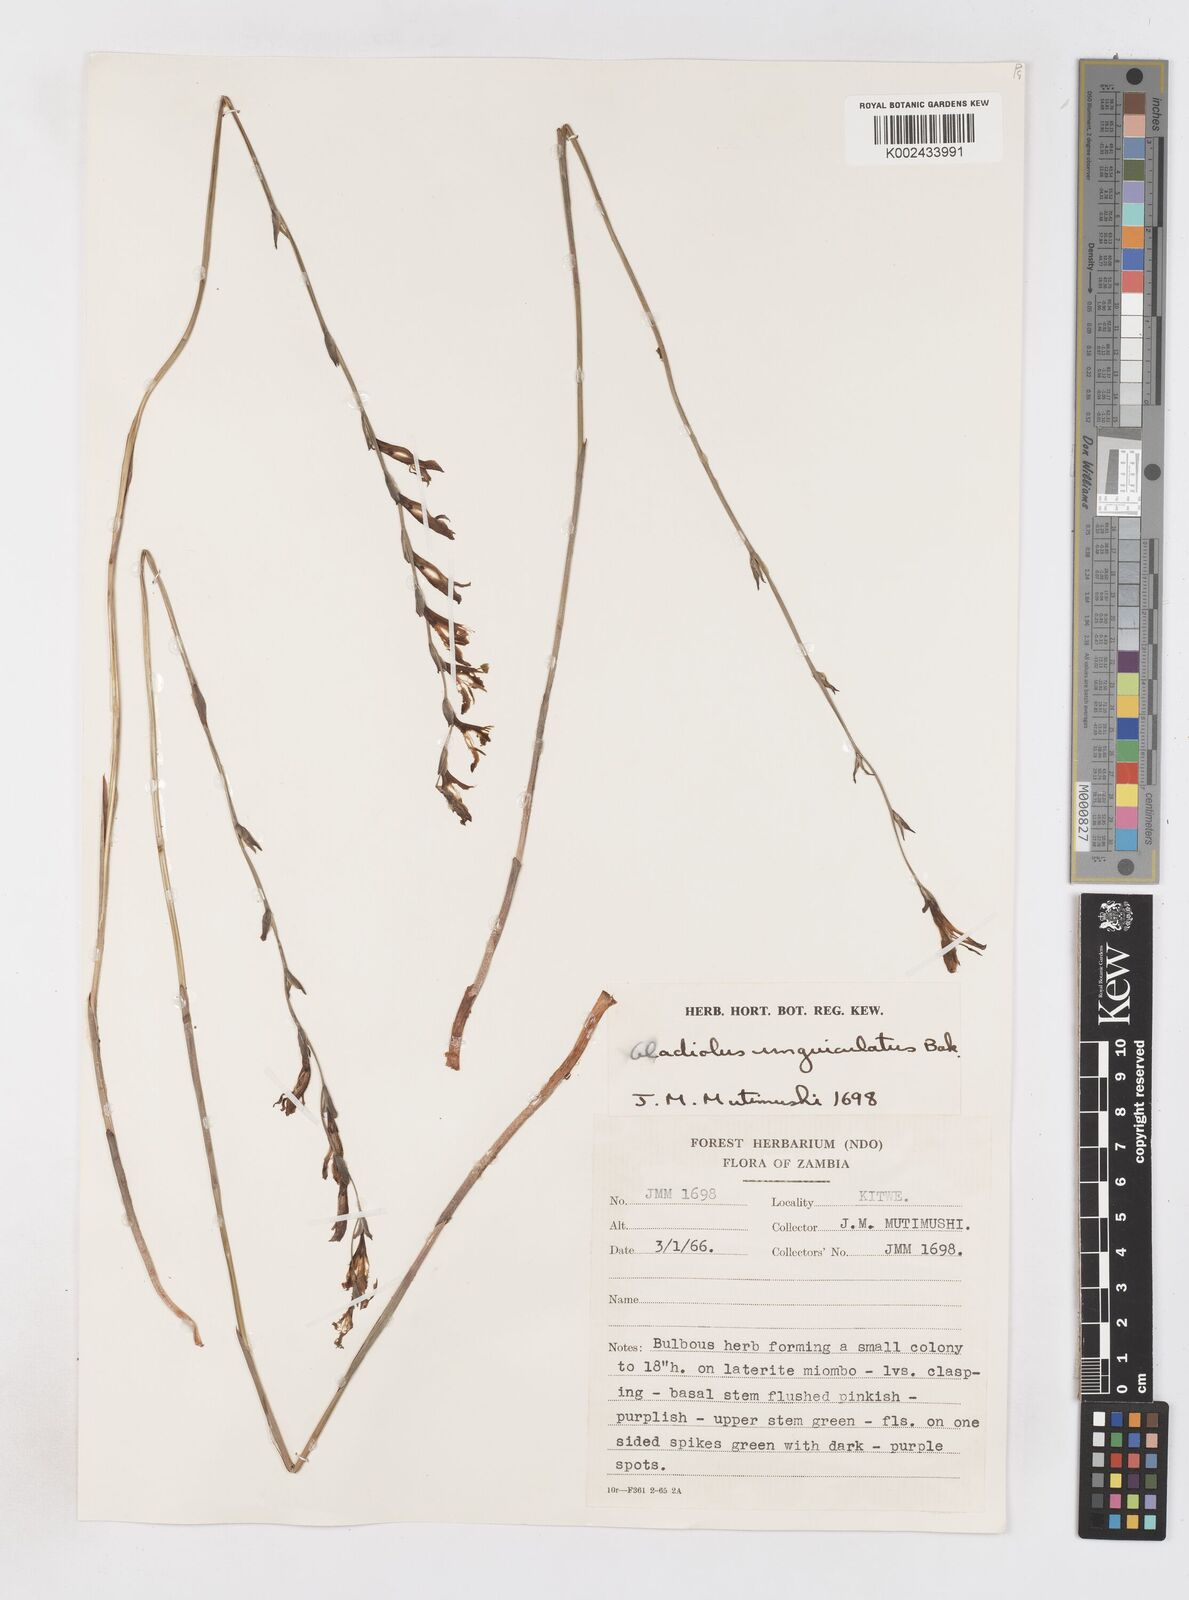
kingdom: Plantae
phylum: Tracheophyta
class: Liliopsida
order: Asparagales
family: Iridaceae
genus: Gladiolus
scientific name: Gladiolus atropurpureus
